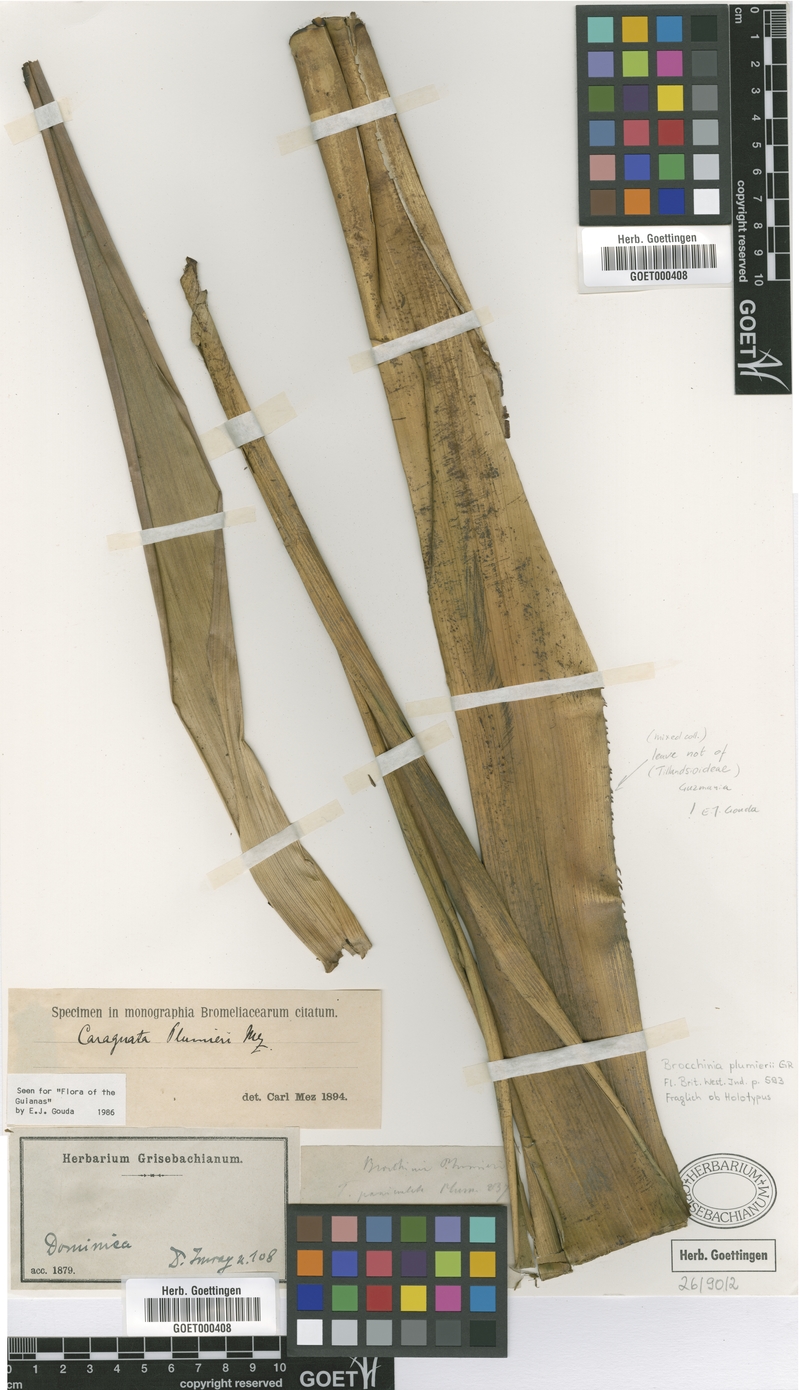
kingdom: Plantae
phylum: Tracheophyta
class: Liliopsida
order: Poales
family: Bromeliaceae
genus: Guzmania
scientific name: Guzmania plumieri
